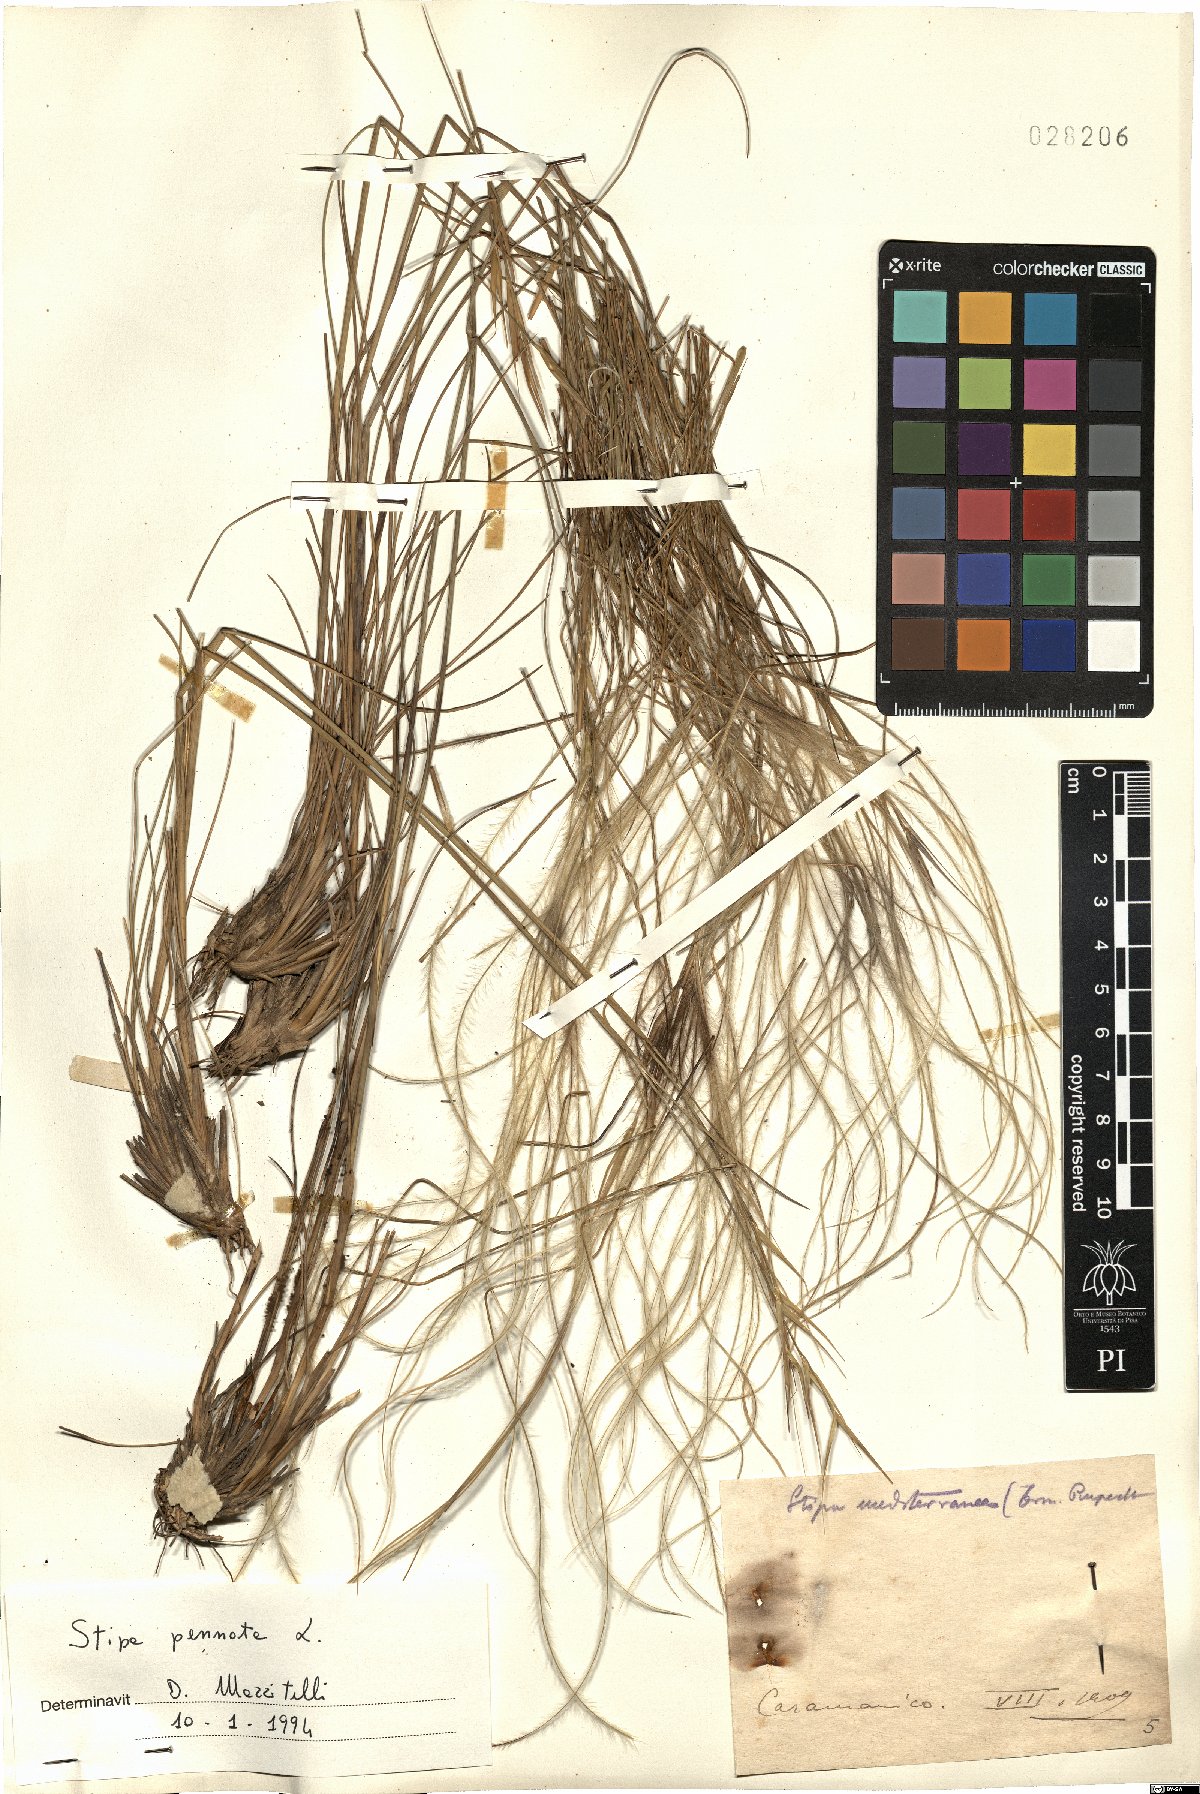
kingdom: Plantae
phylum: Tracheophyta
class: Liliopsida
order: Poales
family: Poaceae
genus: Stipa
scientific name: Stipa pennata
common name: European feather grass
